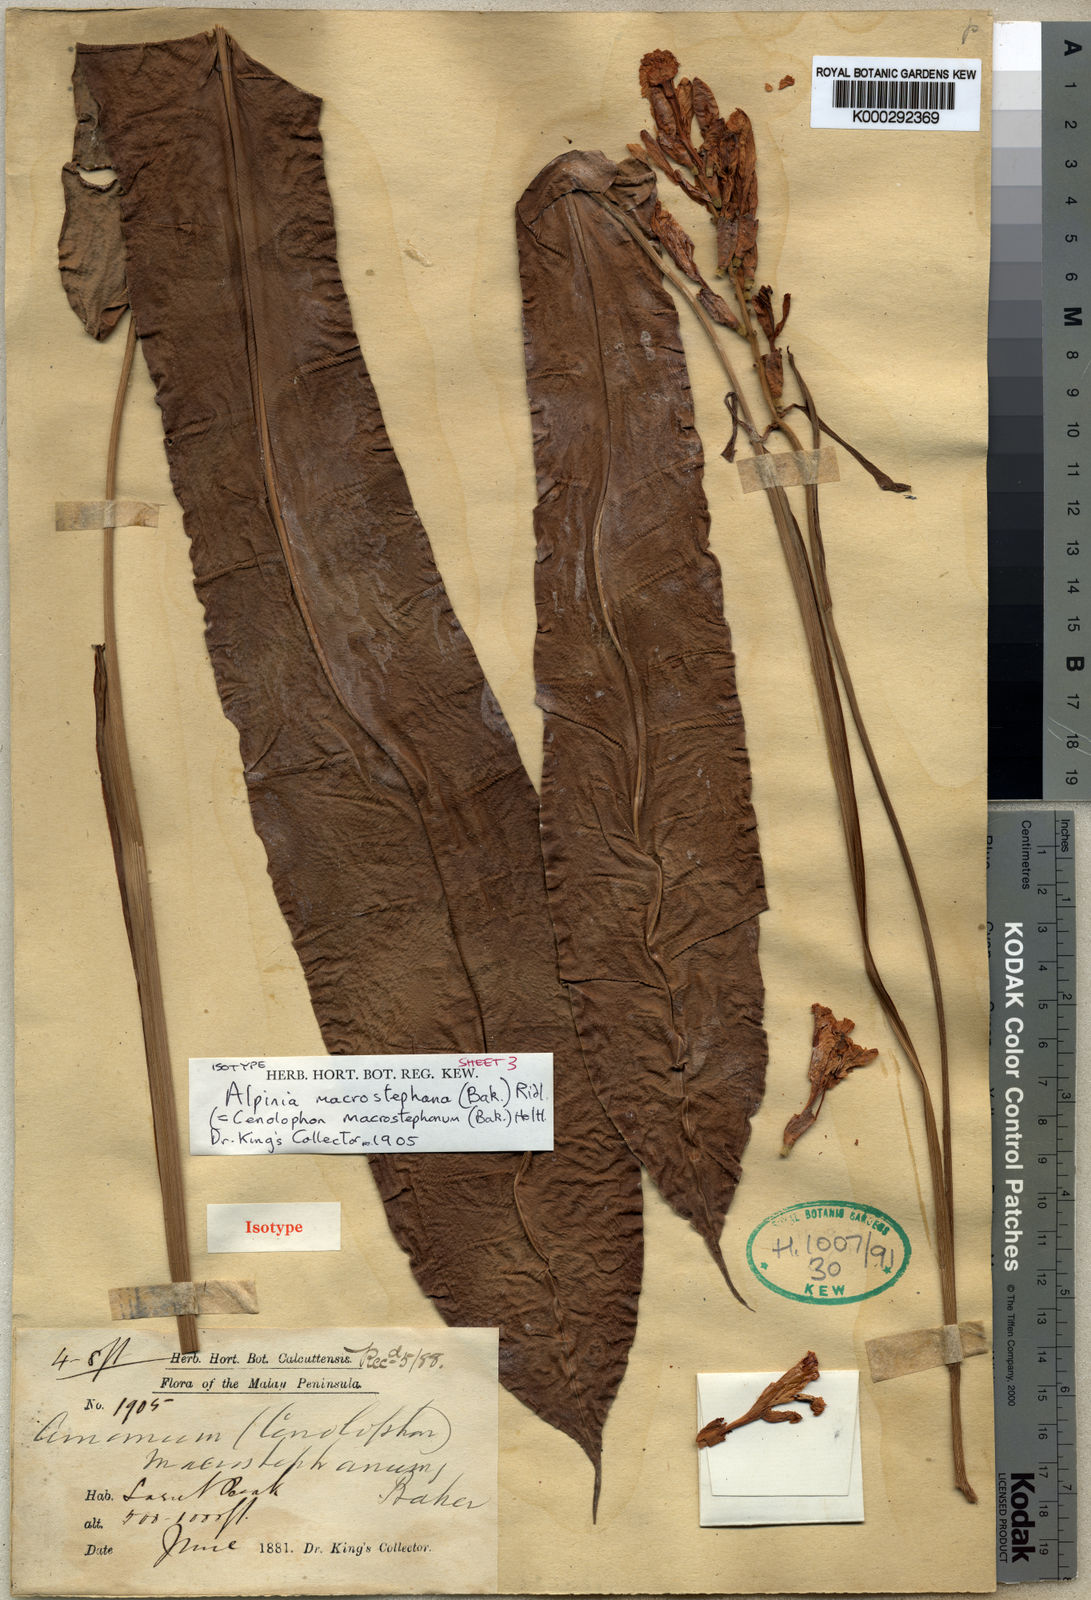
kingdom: Plantae
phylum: Tracheophyta
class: Liliopsida
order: Zingiberales
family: Zingiberaceae
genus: Alpinia
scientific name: Alpinia macrostephana
